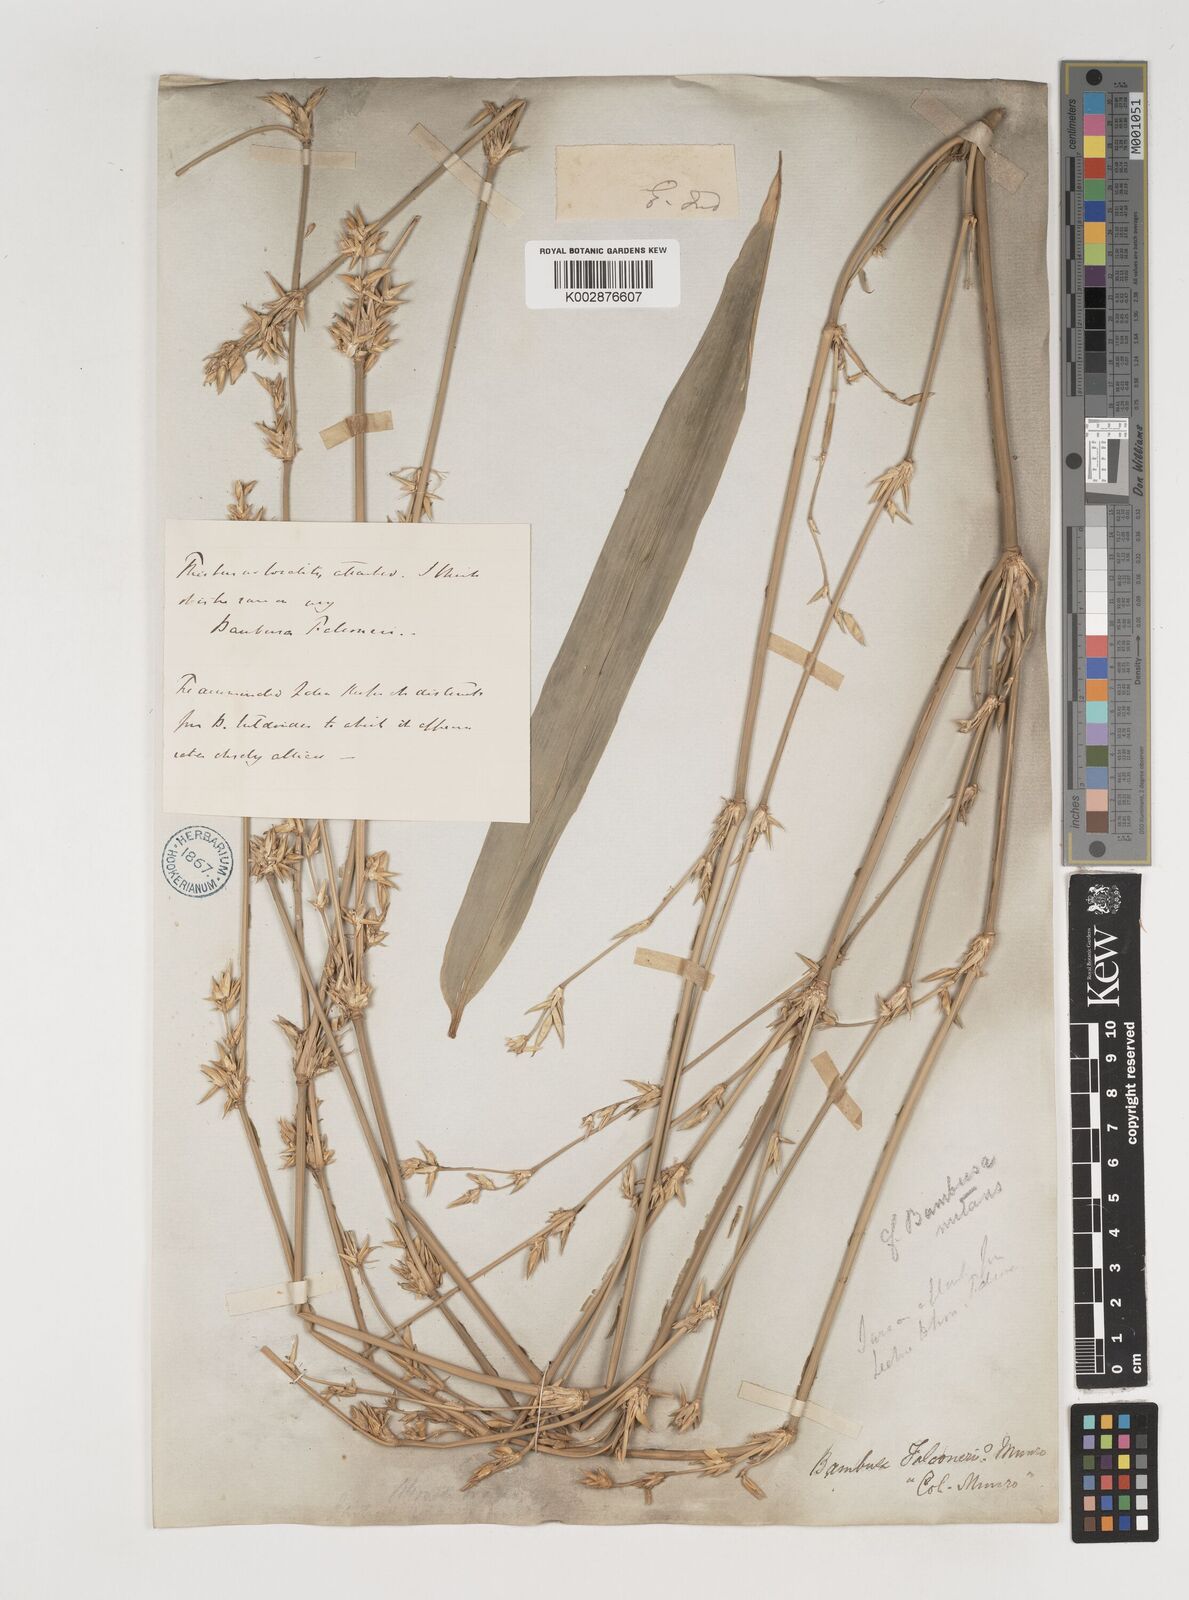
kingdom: Plantae
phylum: Tracheophyta
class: Liliopsida
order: Poales
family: Poaceae
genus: Bambusa
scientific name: Bambusa nutans
